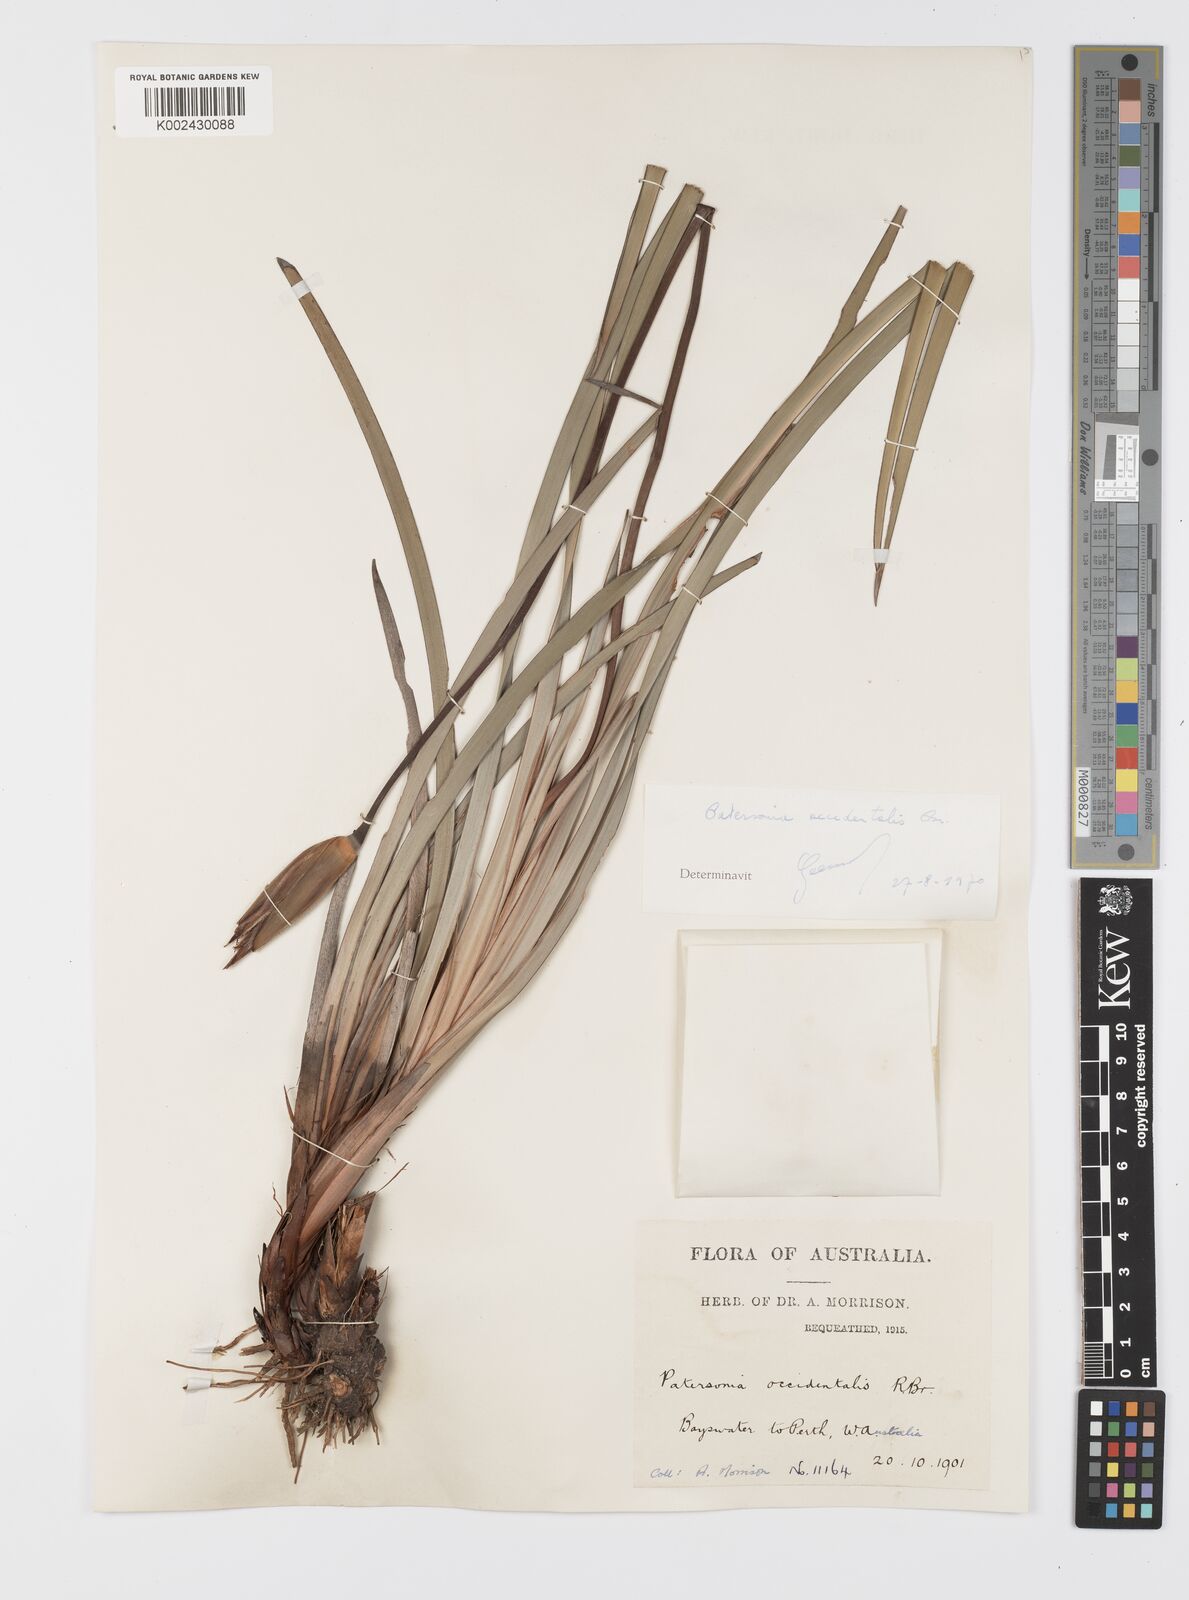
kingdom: Plantae
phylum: Tracheophyta
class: Liliopsida
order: Asparagales
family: Iridaceae
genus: Patersonia
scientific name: Patersonia occidentalis
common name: Long purple-flag
